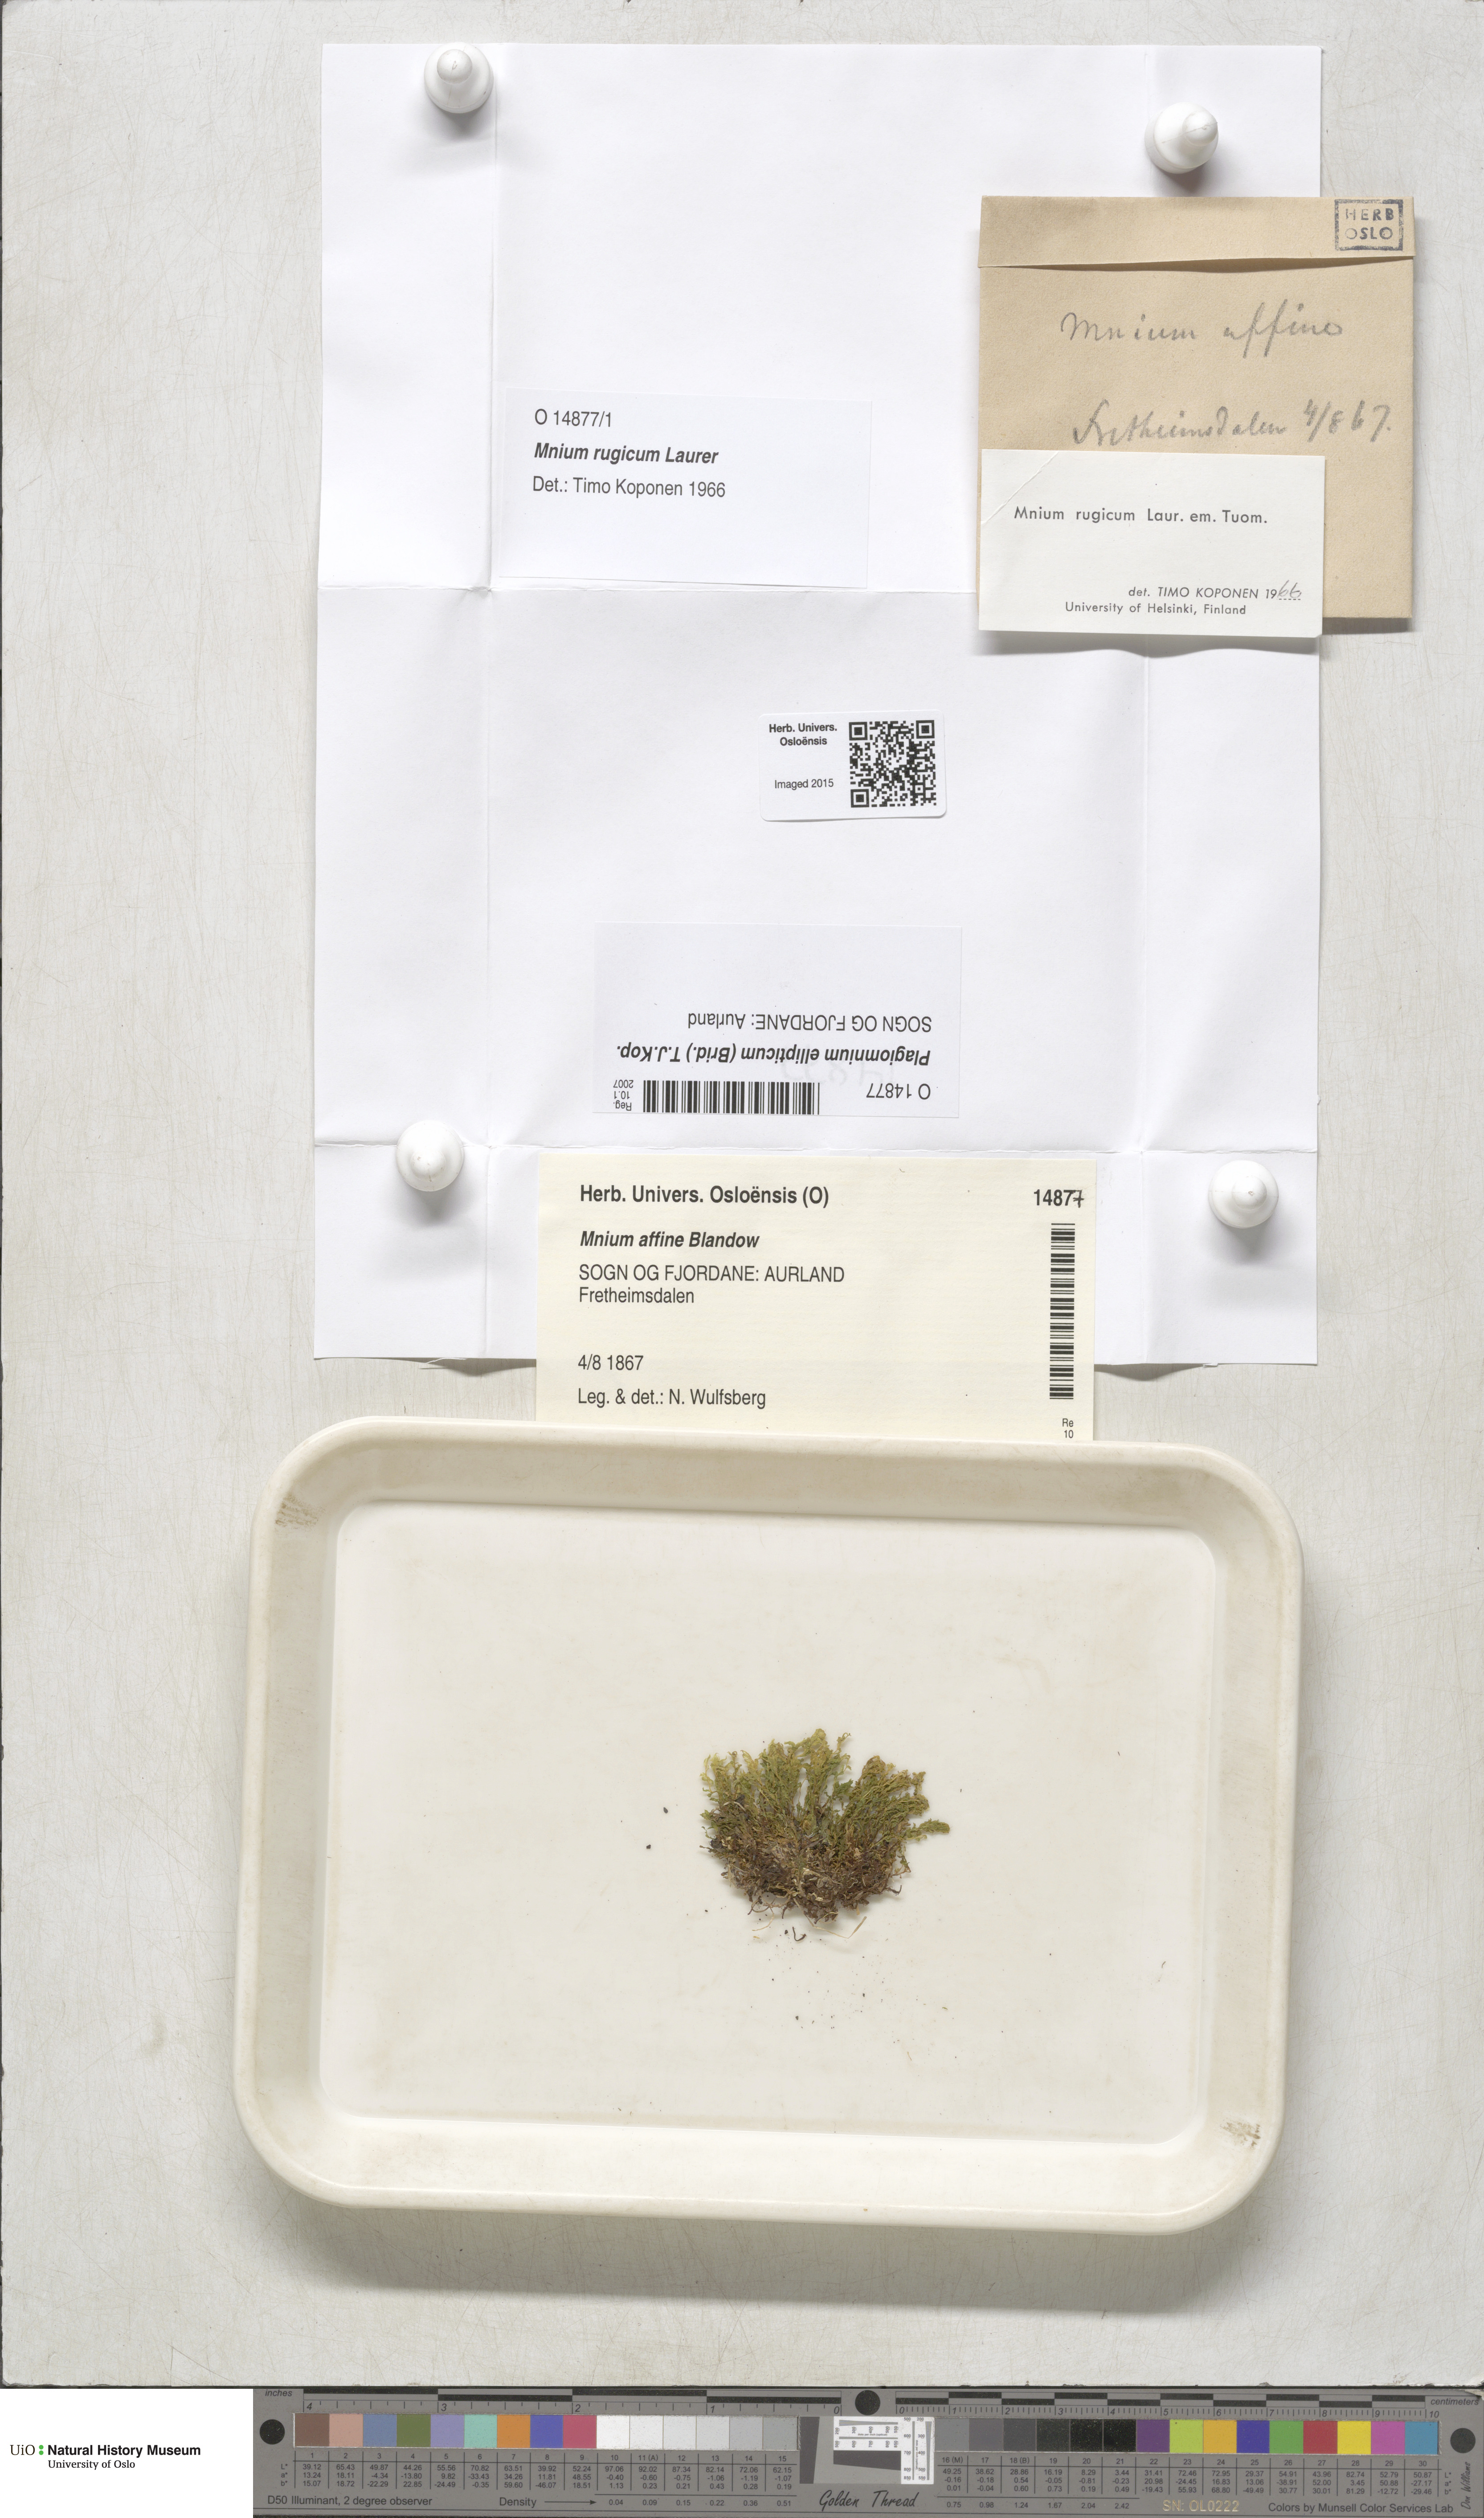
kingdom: Plantae
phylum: Bryophyta
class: Bryopsida
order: Bryales
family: Mniaceae
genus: Plagiomnium
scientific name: Plagiomnium ellipticum
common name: Marsh leafy moss
